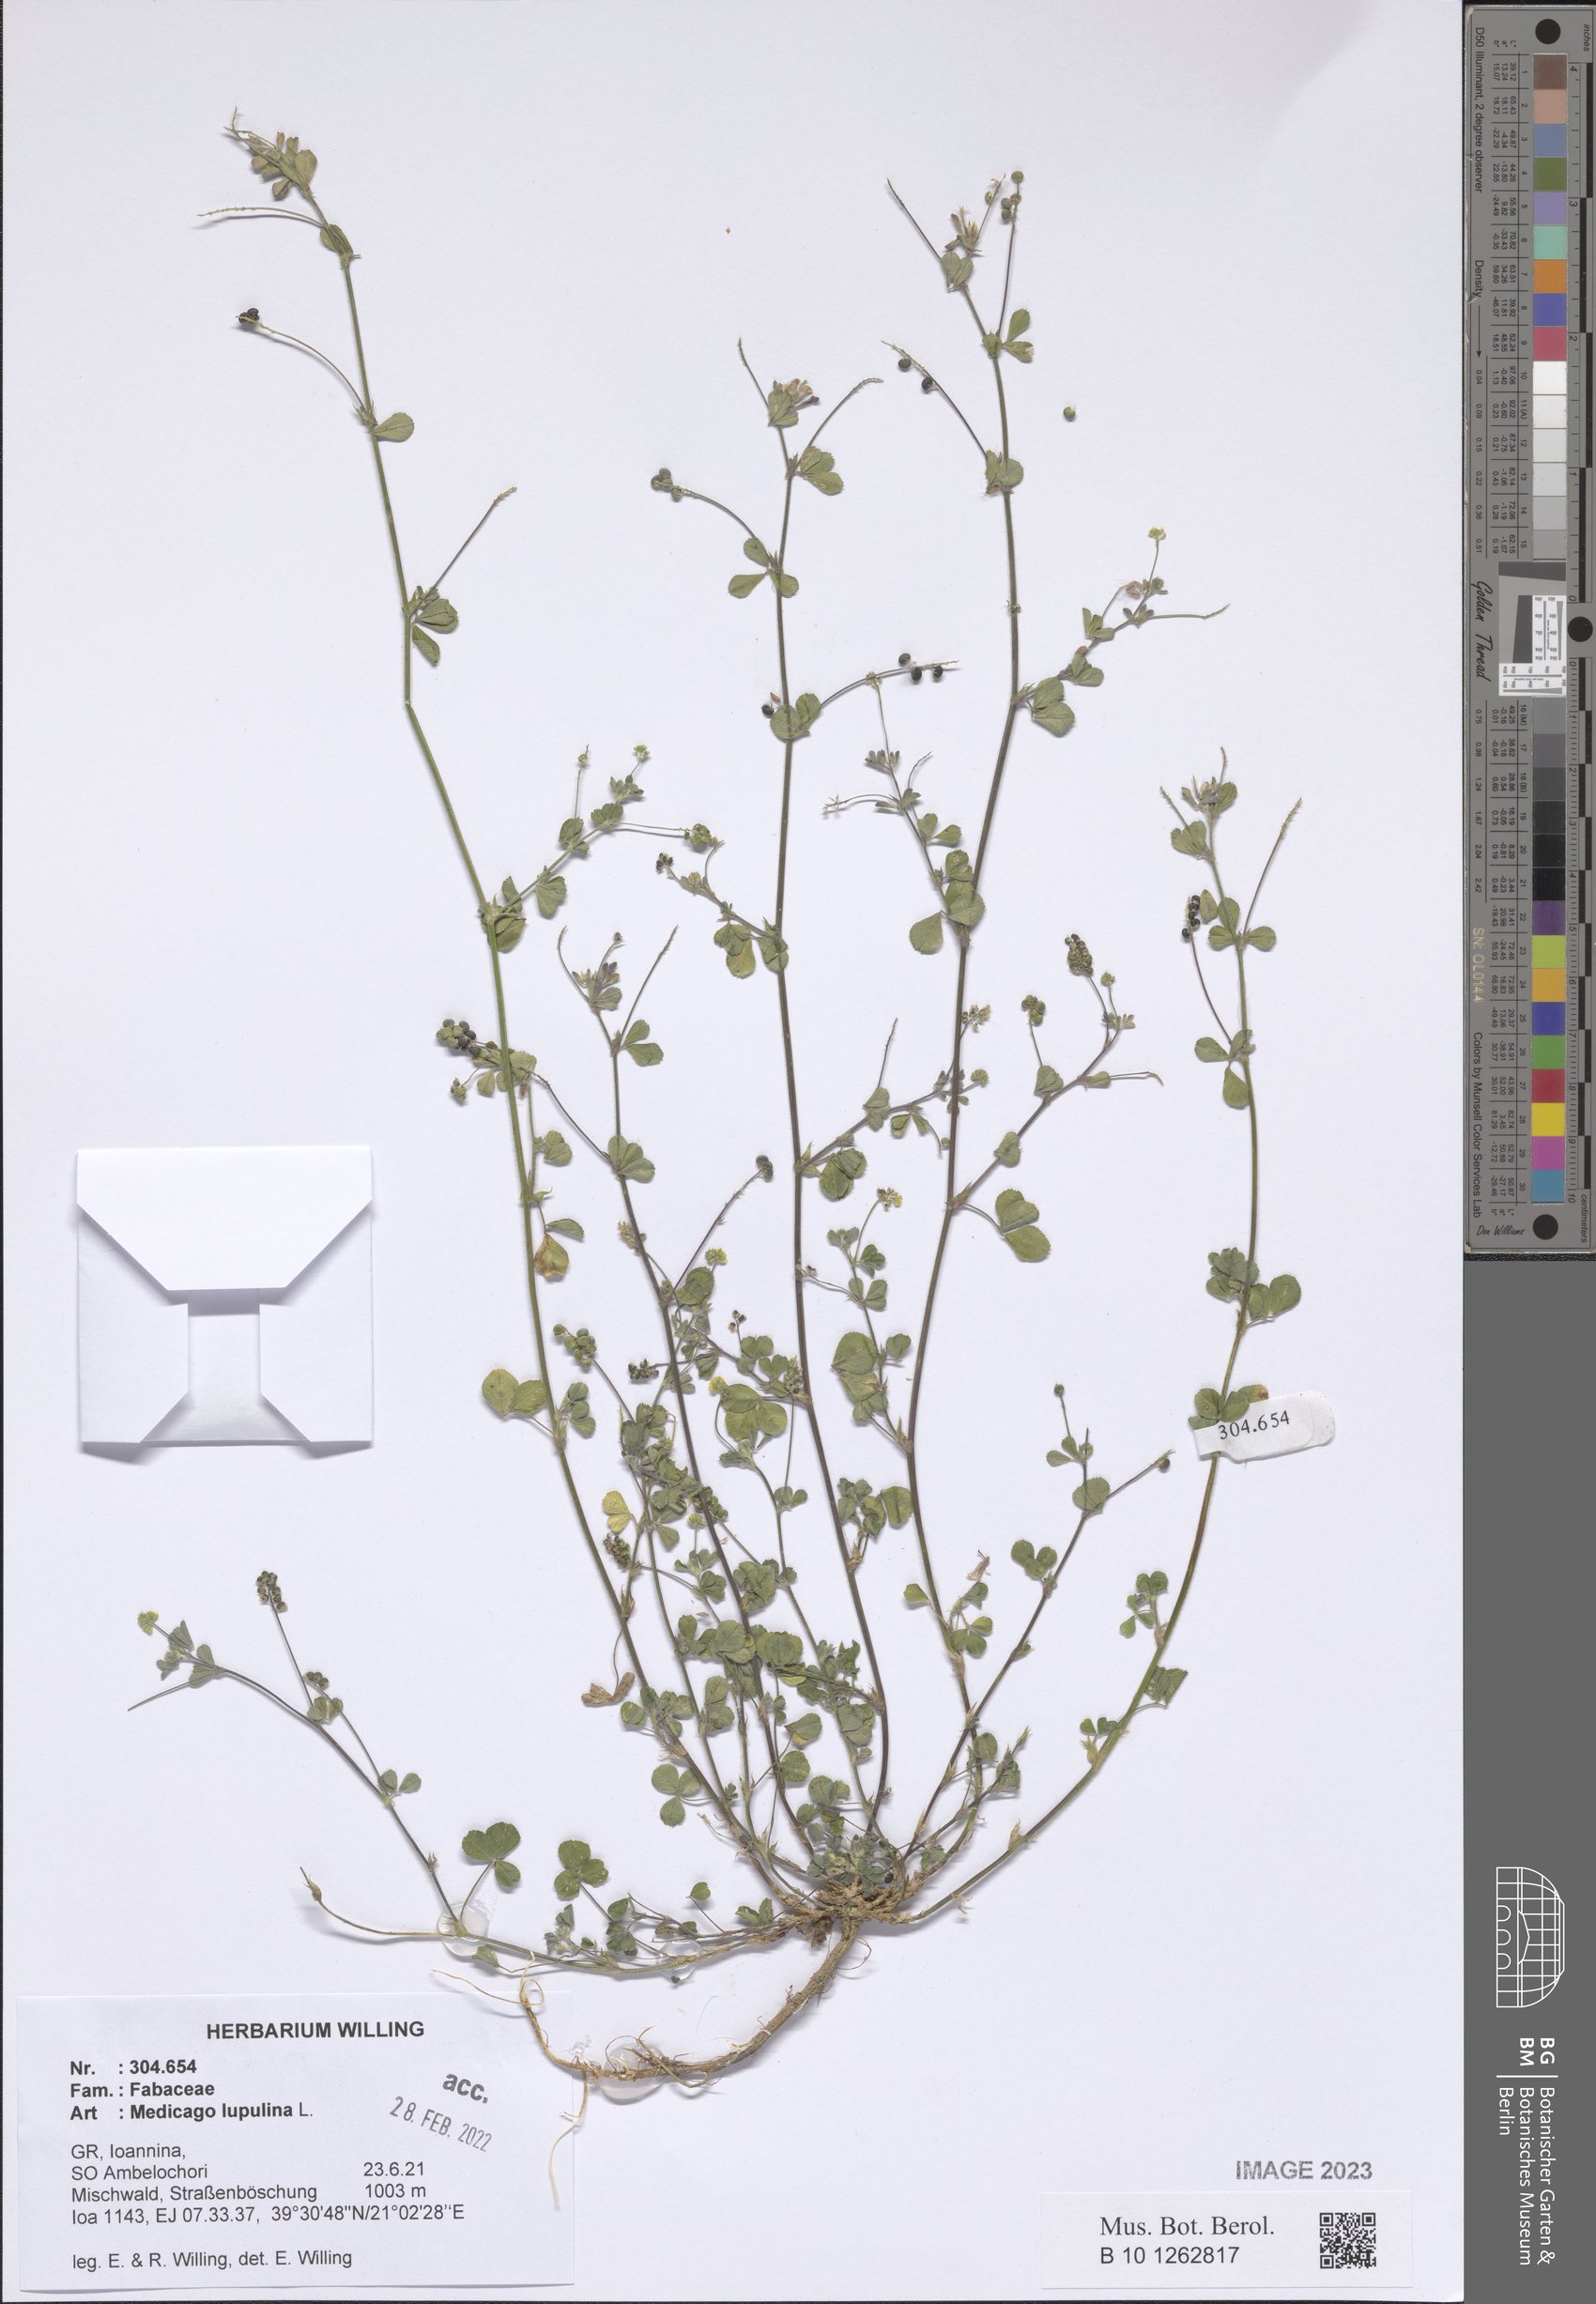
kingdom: Plantae
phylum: Tracheophyta
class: Magnoliopsida
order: Fabales
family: Fabaceae
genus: Medicago
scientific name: Medicago lupulina
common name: Black medick
